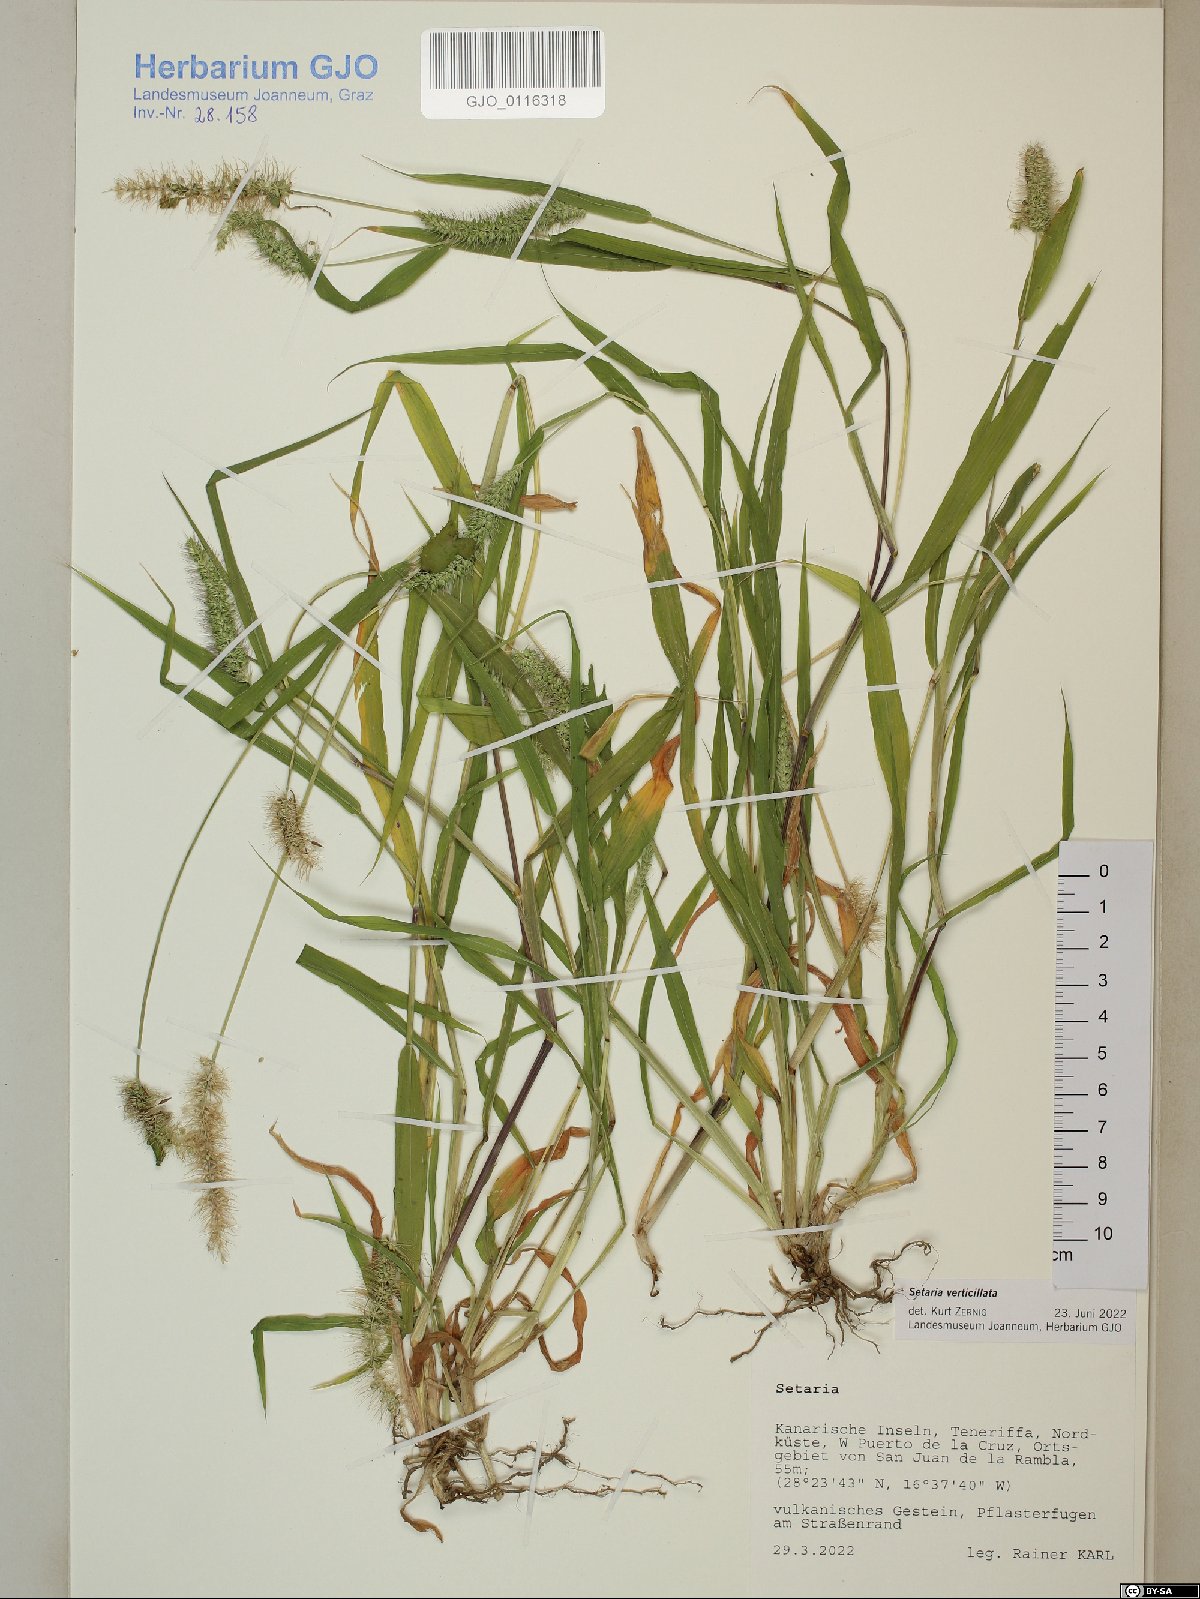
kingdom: Plantae
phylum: Tracheophyta
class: Liliopsida
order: Poales
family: Poaceae
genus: Setaria
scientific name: Setaria verticillata
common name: Hooked bristlegrass
